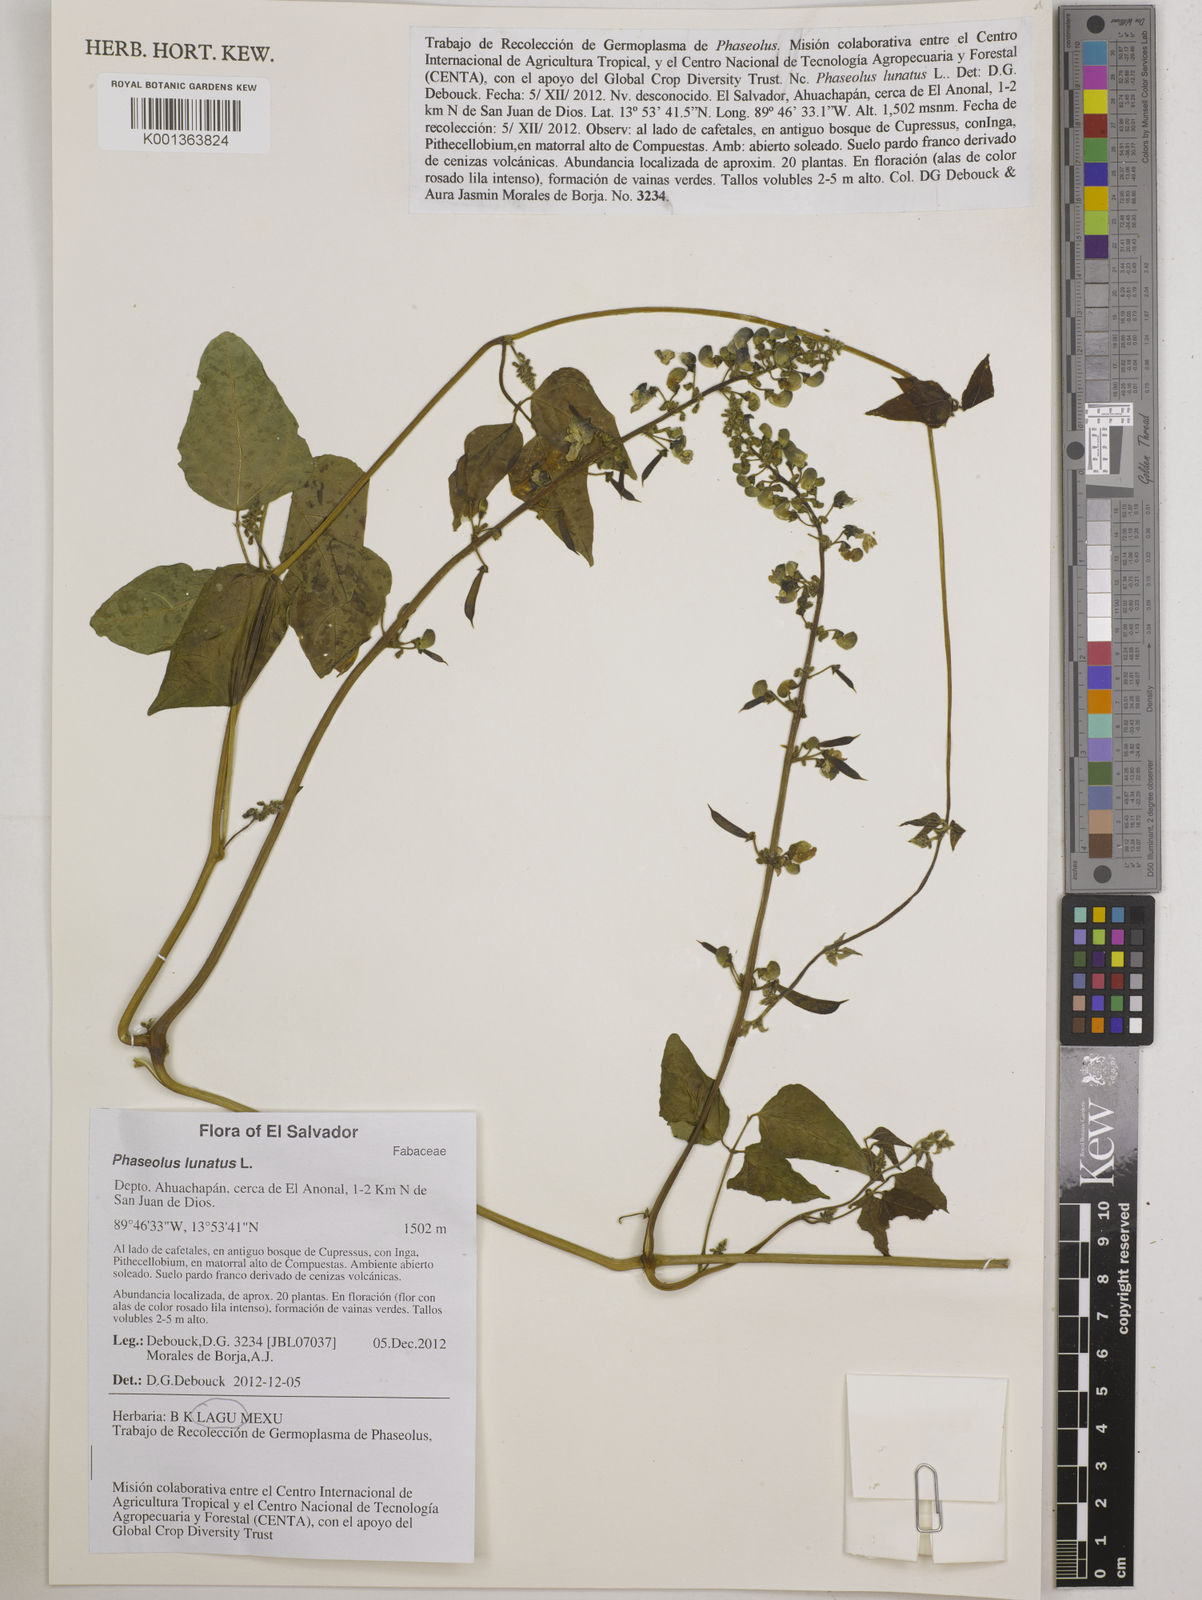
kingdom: Plantae
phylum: Tracheophyta
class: Magnoliopsida
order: Fabales
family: Fabaceae
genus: Phaseolus
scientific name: Phaseolus lunatus
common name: Sieva bean
